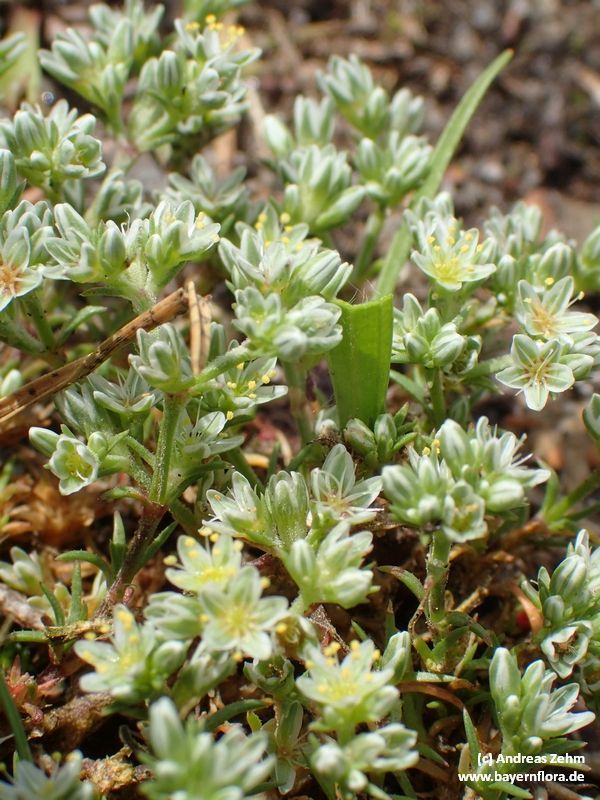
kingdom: Plantae
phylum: Tracheophyta
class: Magnoliopsida
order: Caryophyllales
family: Caryophyllaceae
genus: Scleranthus
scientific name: Scleranthus perennis
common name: Perennial knawel
